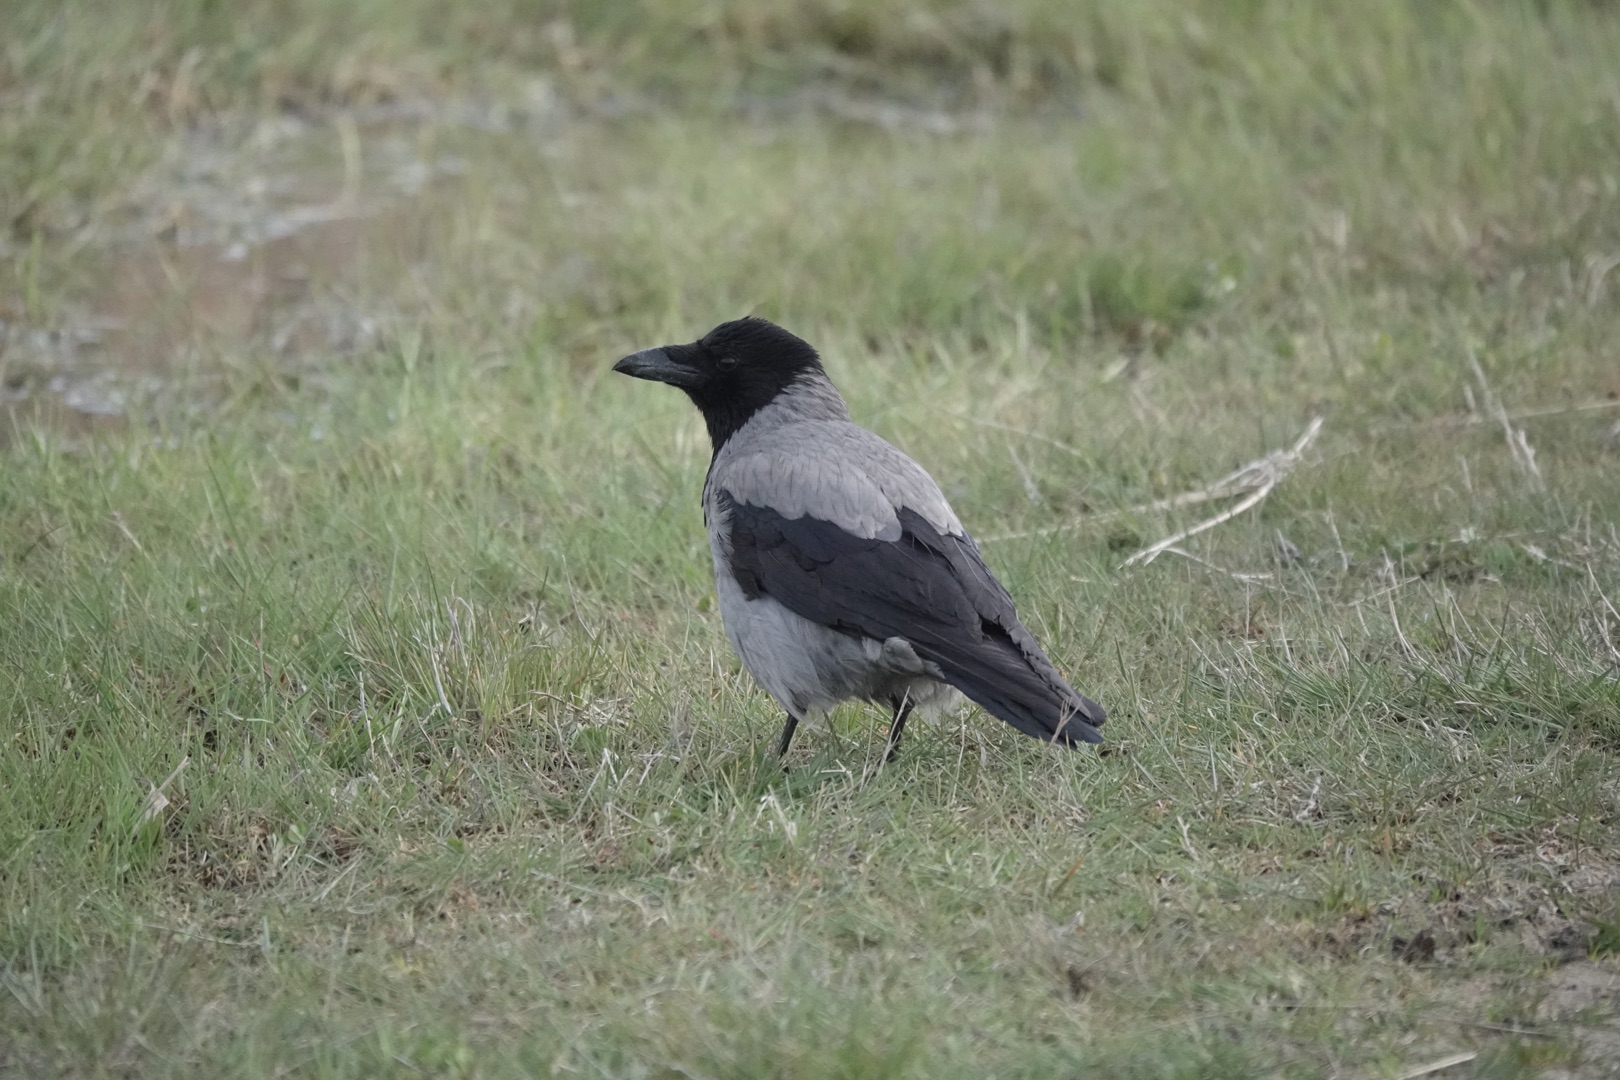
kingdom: Animalia
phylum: Chordata
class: Aves
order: Passeriformes
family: Corvidae
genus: Corvus
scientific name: Corvus cornix
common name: Gråkrage
